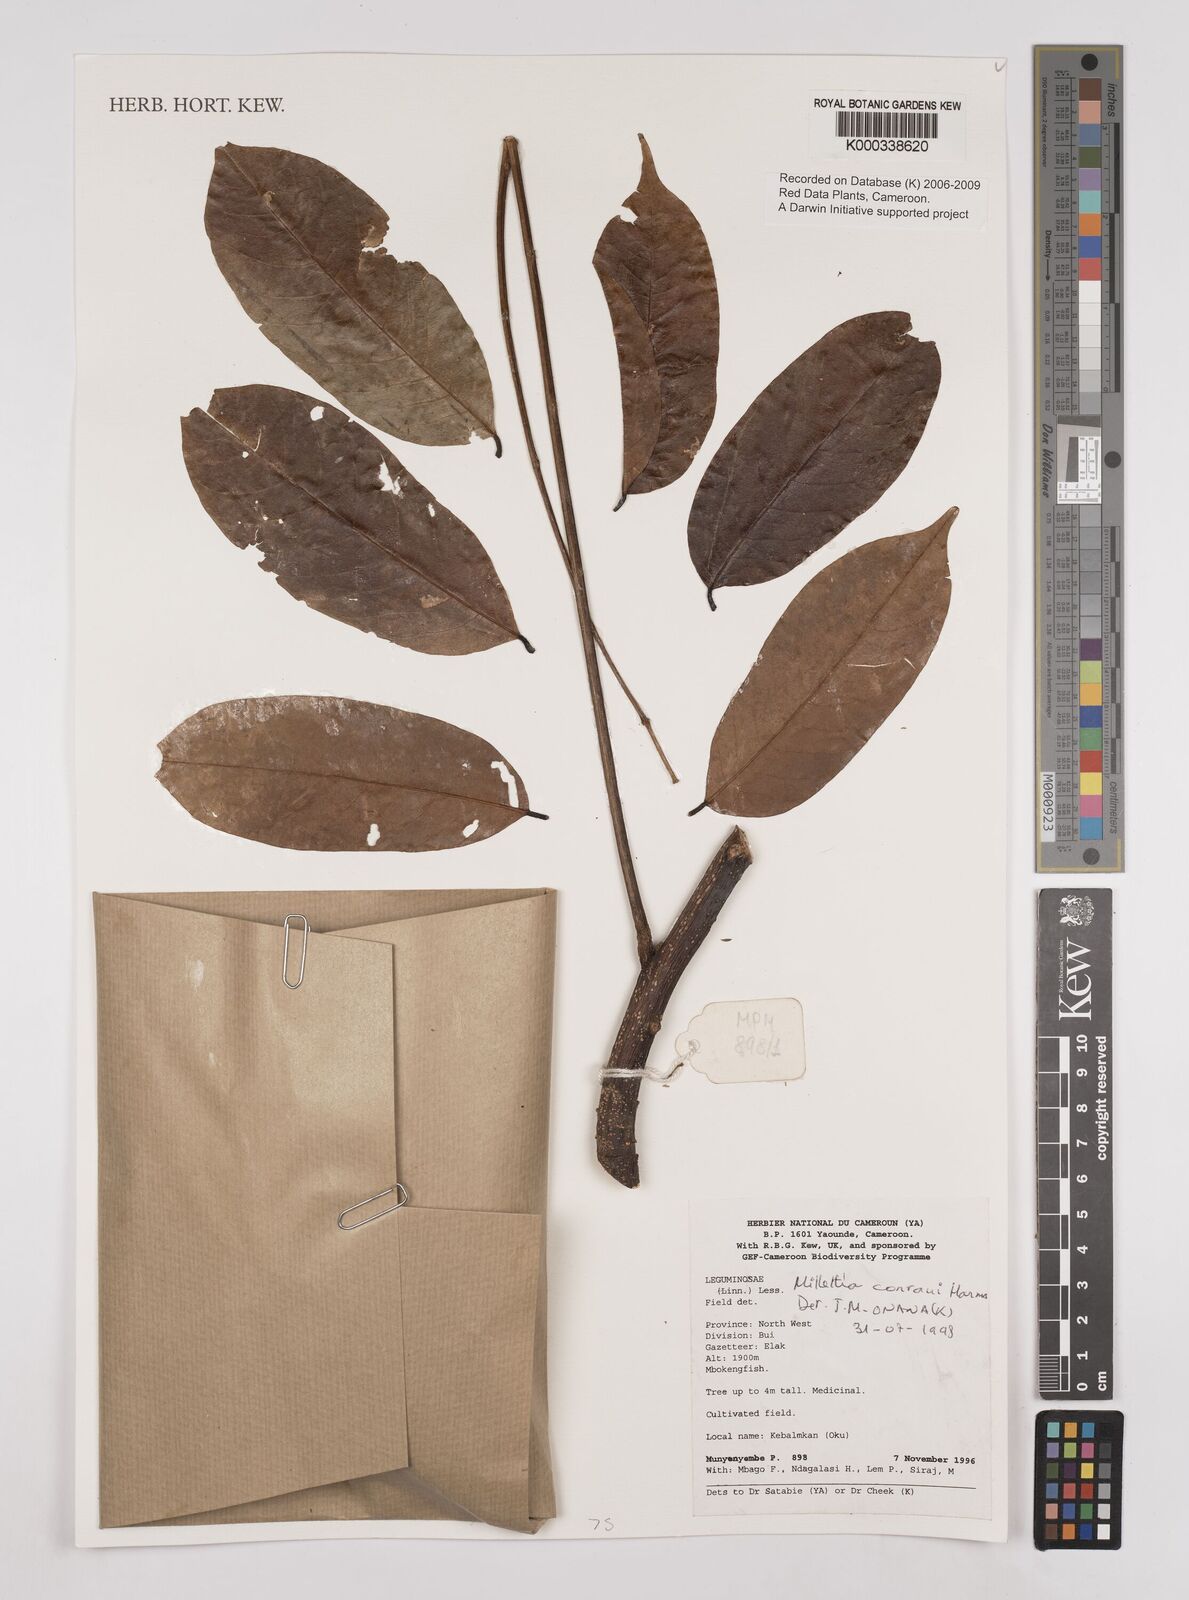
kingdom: Plantae
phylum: Tracheophyta
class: Magnoliopsida
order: Fabales
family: Fabaceae
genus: Millettia
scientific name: Millettia conraui
